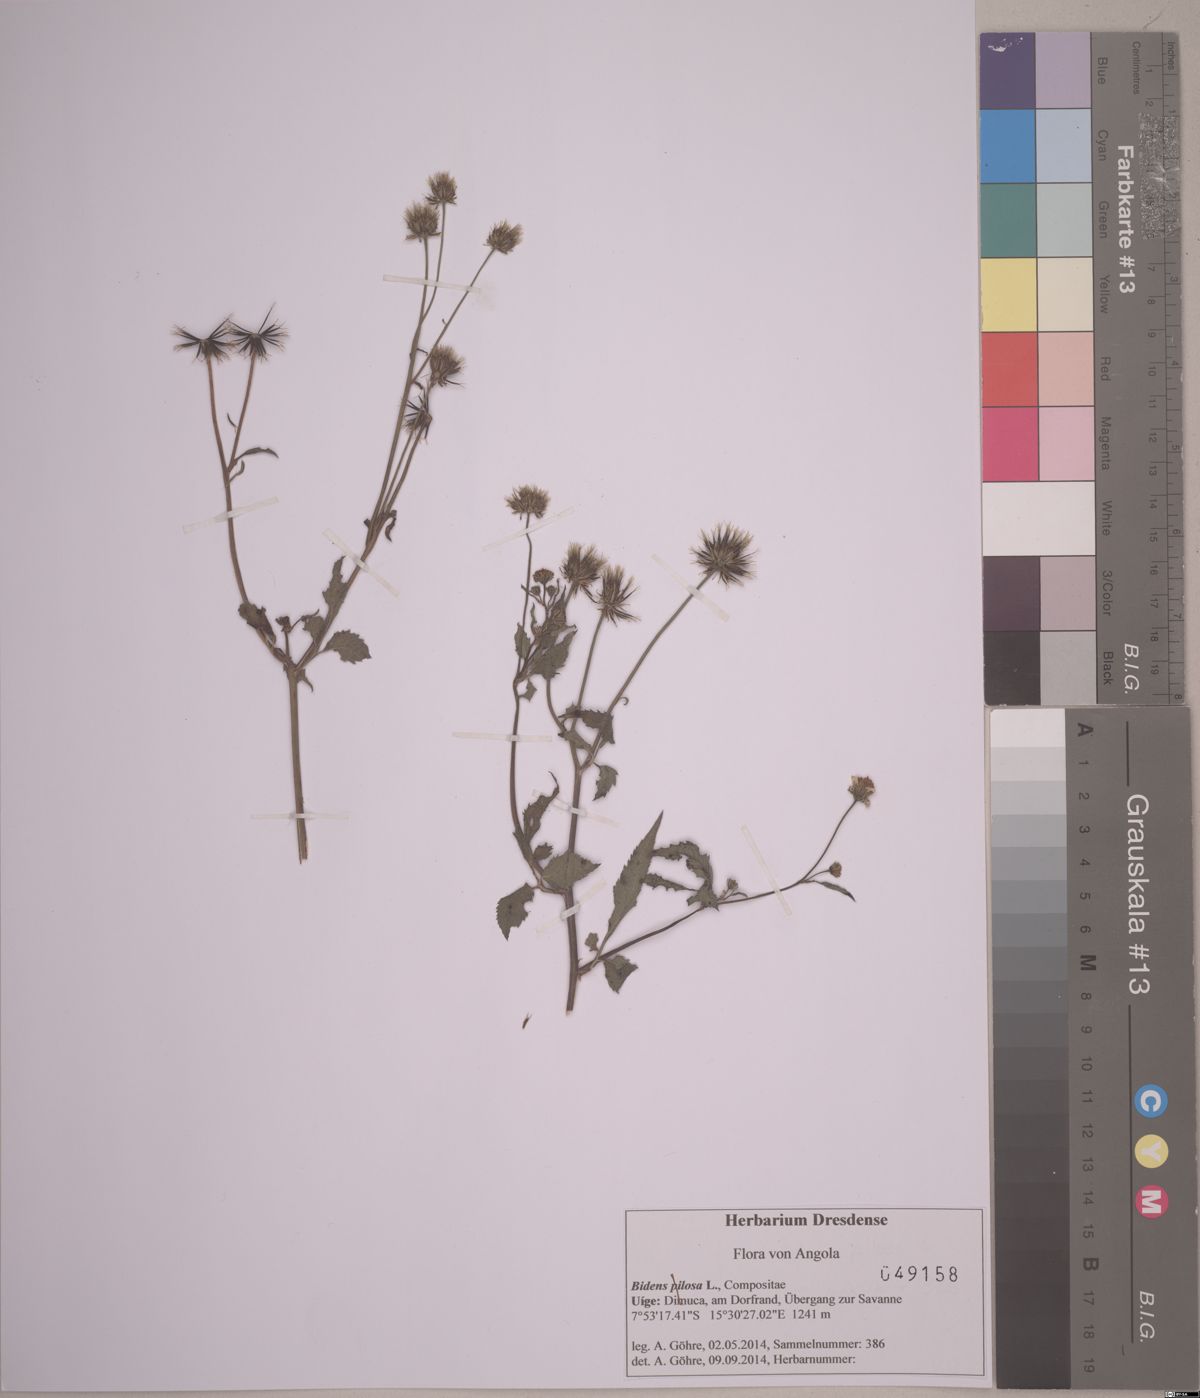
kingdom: Plantae
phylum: Tracheophyta
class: Magnoliopsida
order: Asterales
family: Asteraceae
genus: Bidens
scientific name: Bidens pilosa
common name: Black-jack
